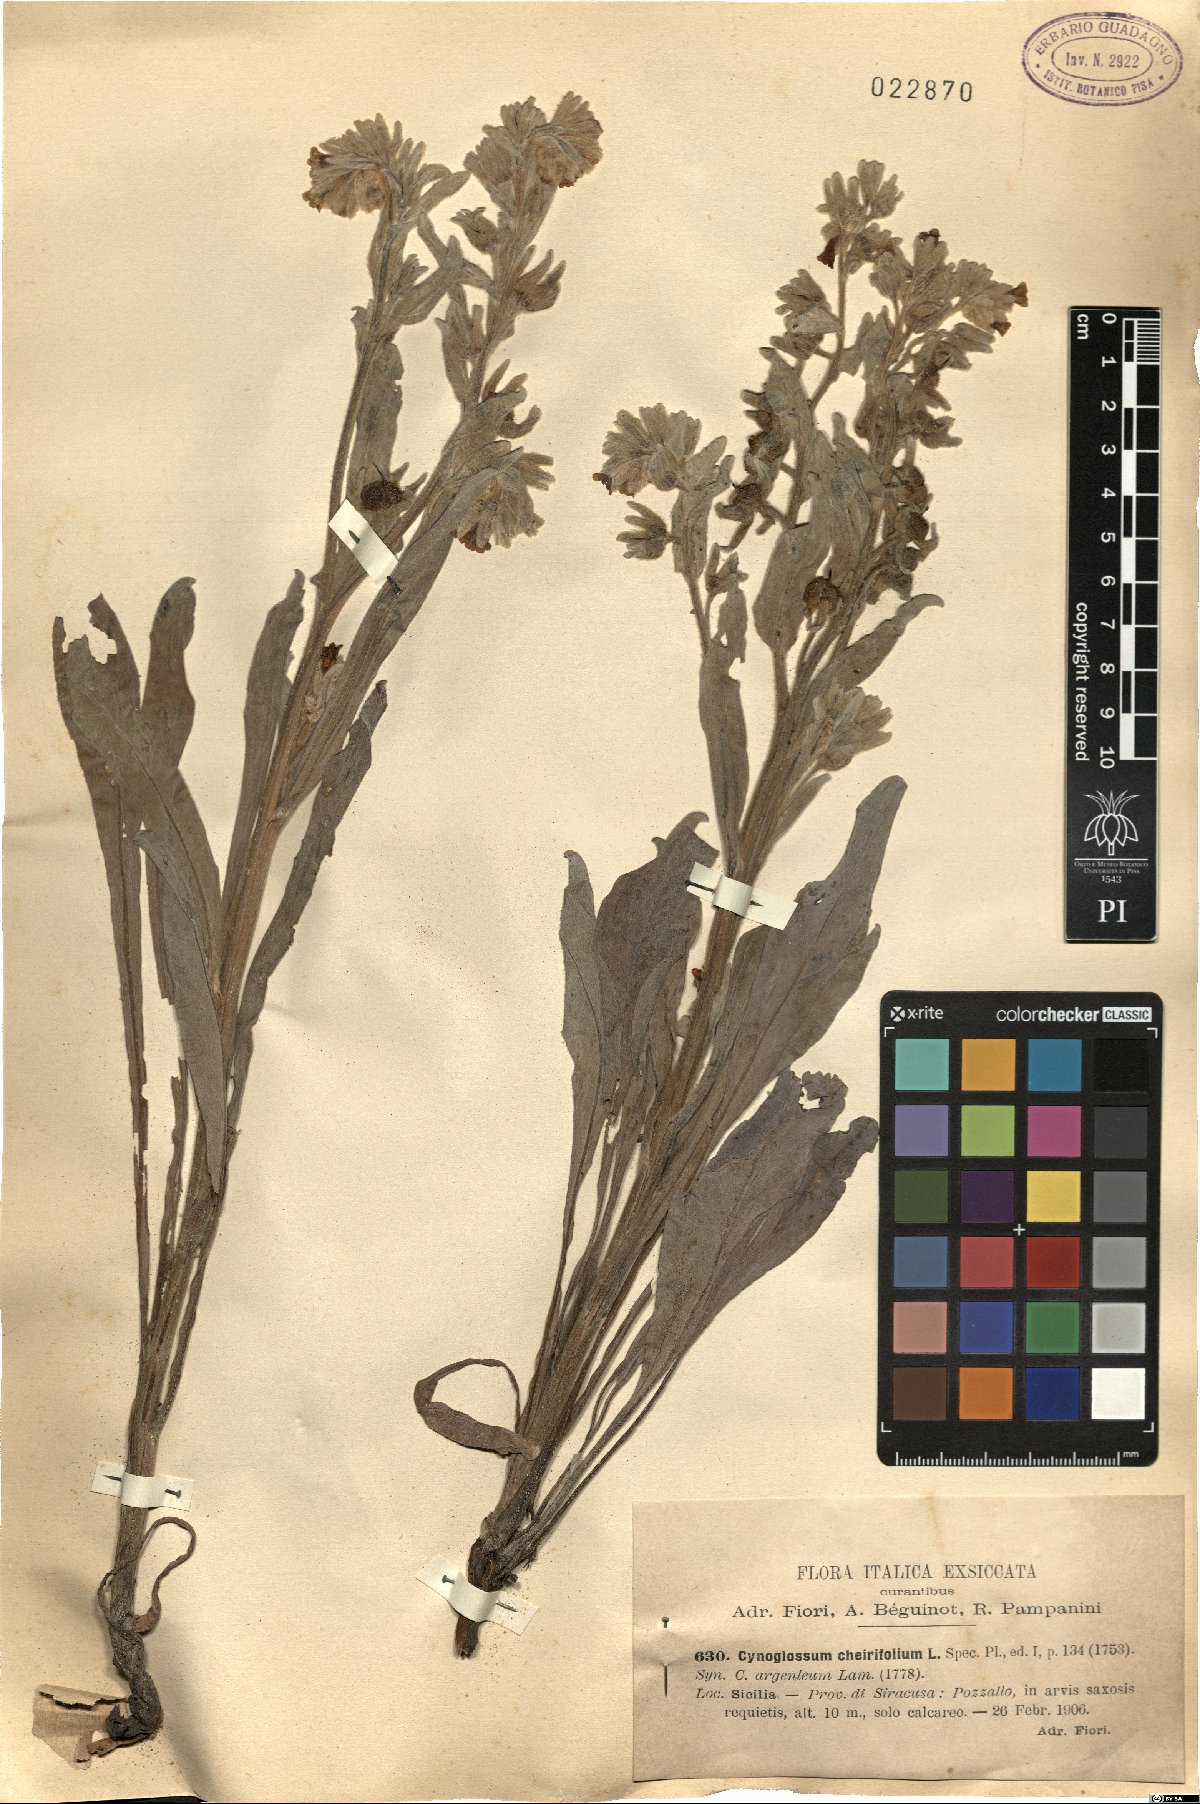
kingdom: Plantae
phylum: Tracheophyta
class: Magnoliopsida
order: Boraginales
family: Boraginaceae
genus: Pardoglossum
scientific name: Pardoglossum cheirifolium
